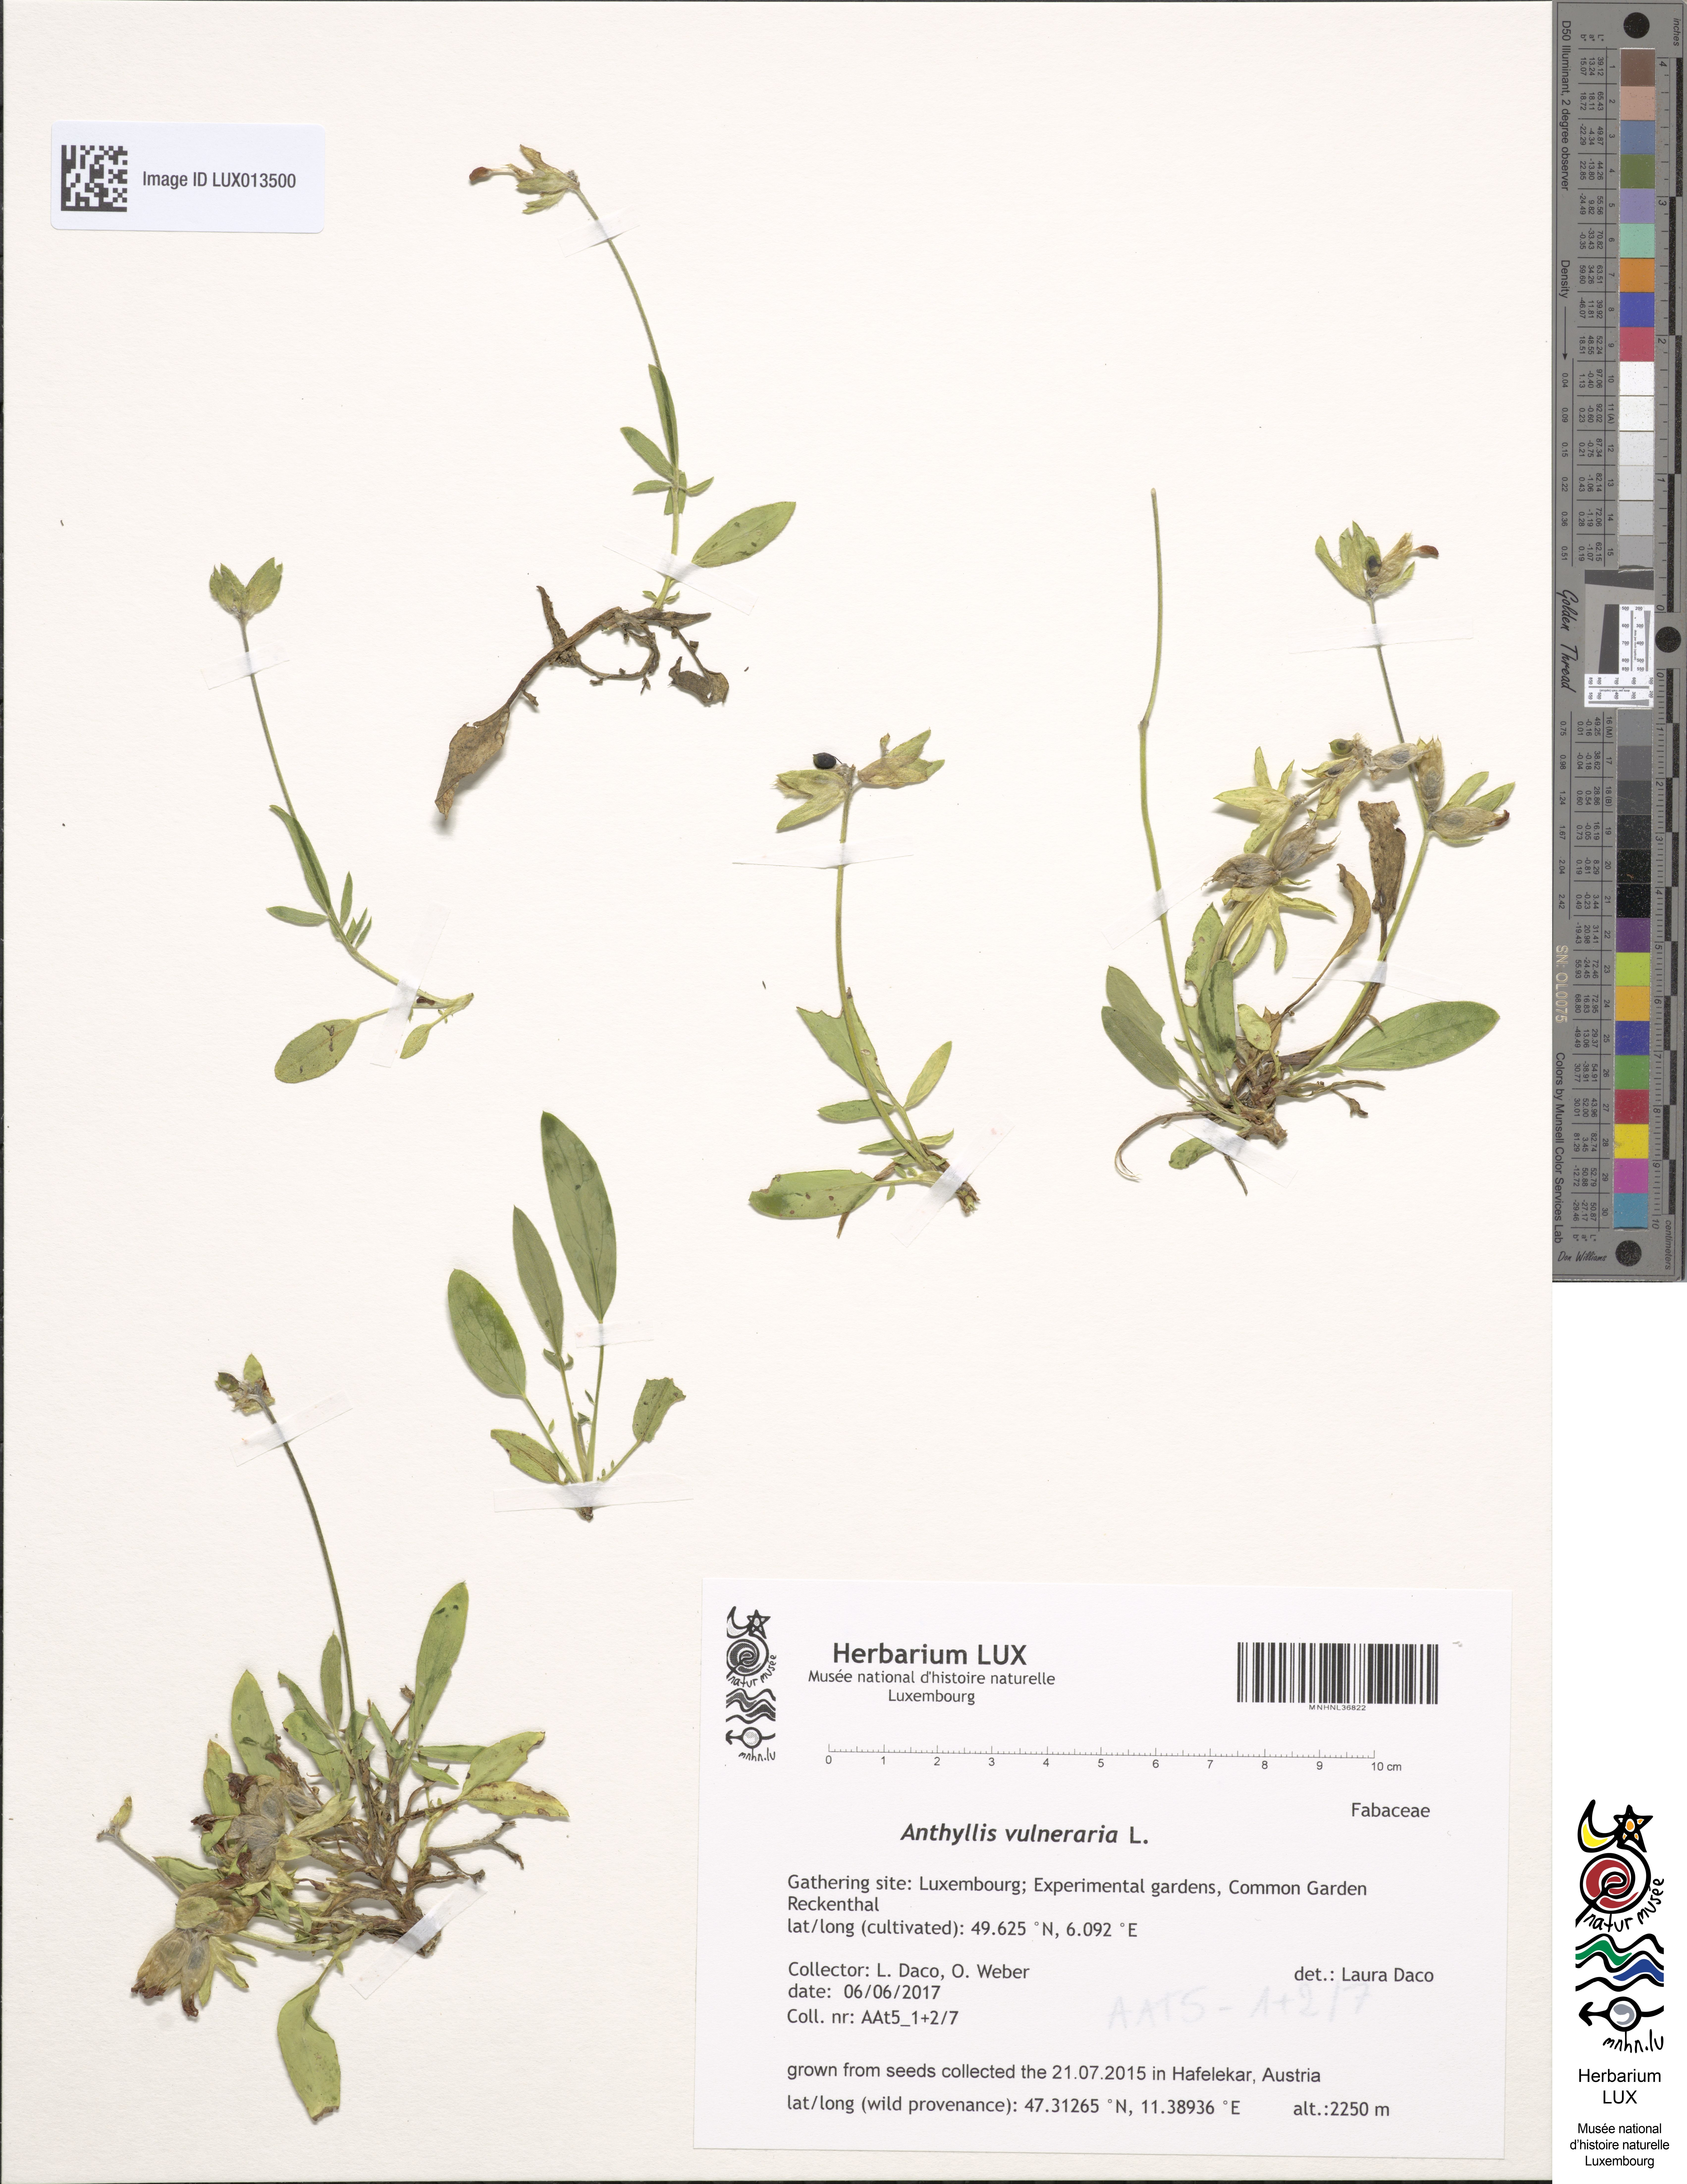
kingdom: Plantae
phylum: Tracheophyta
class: Magnoliopsida
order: Fabales
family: Fabaceae
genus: Anthyllis
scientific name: Anthyllis vulneraria
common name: Kidney vetch
